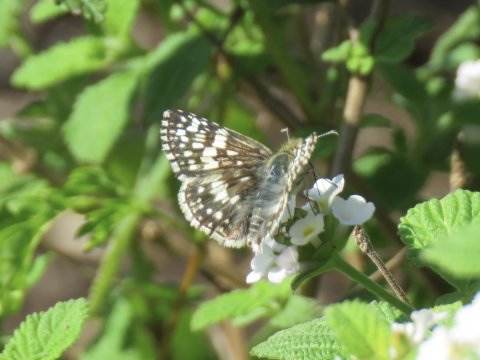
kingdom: Animalia
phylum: Arthropoda
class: Insecta
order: Lepidoptera
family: Hesperiidae
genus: Pyrgus
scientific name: Pyrgus communis
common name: White Checkered-Skipper
